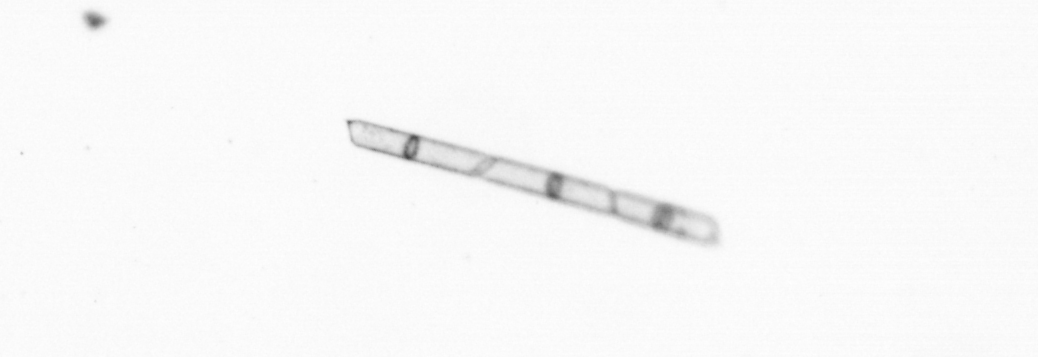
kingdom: Chromista
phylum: Ochrophyta
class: Bacillariophyceae
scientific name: Bacillariophyceae
